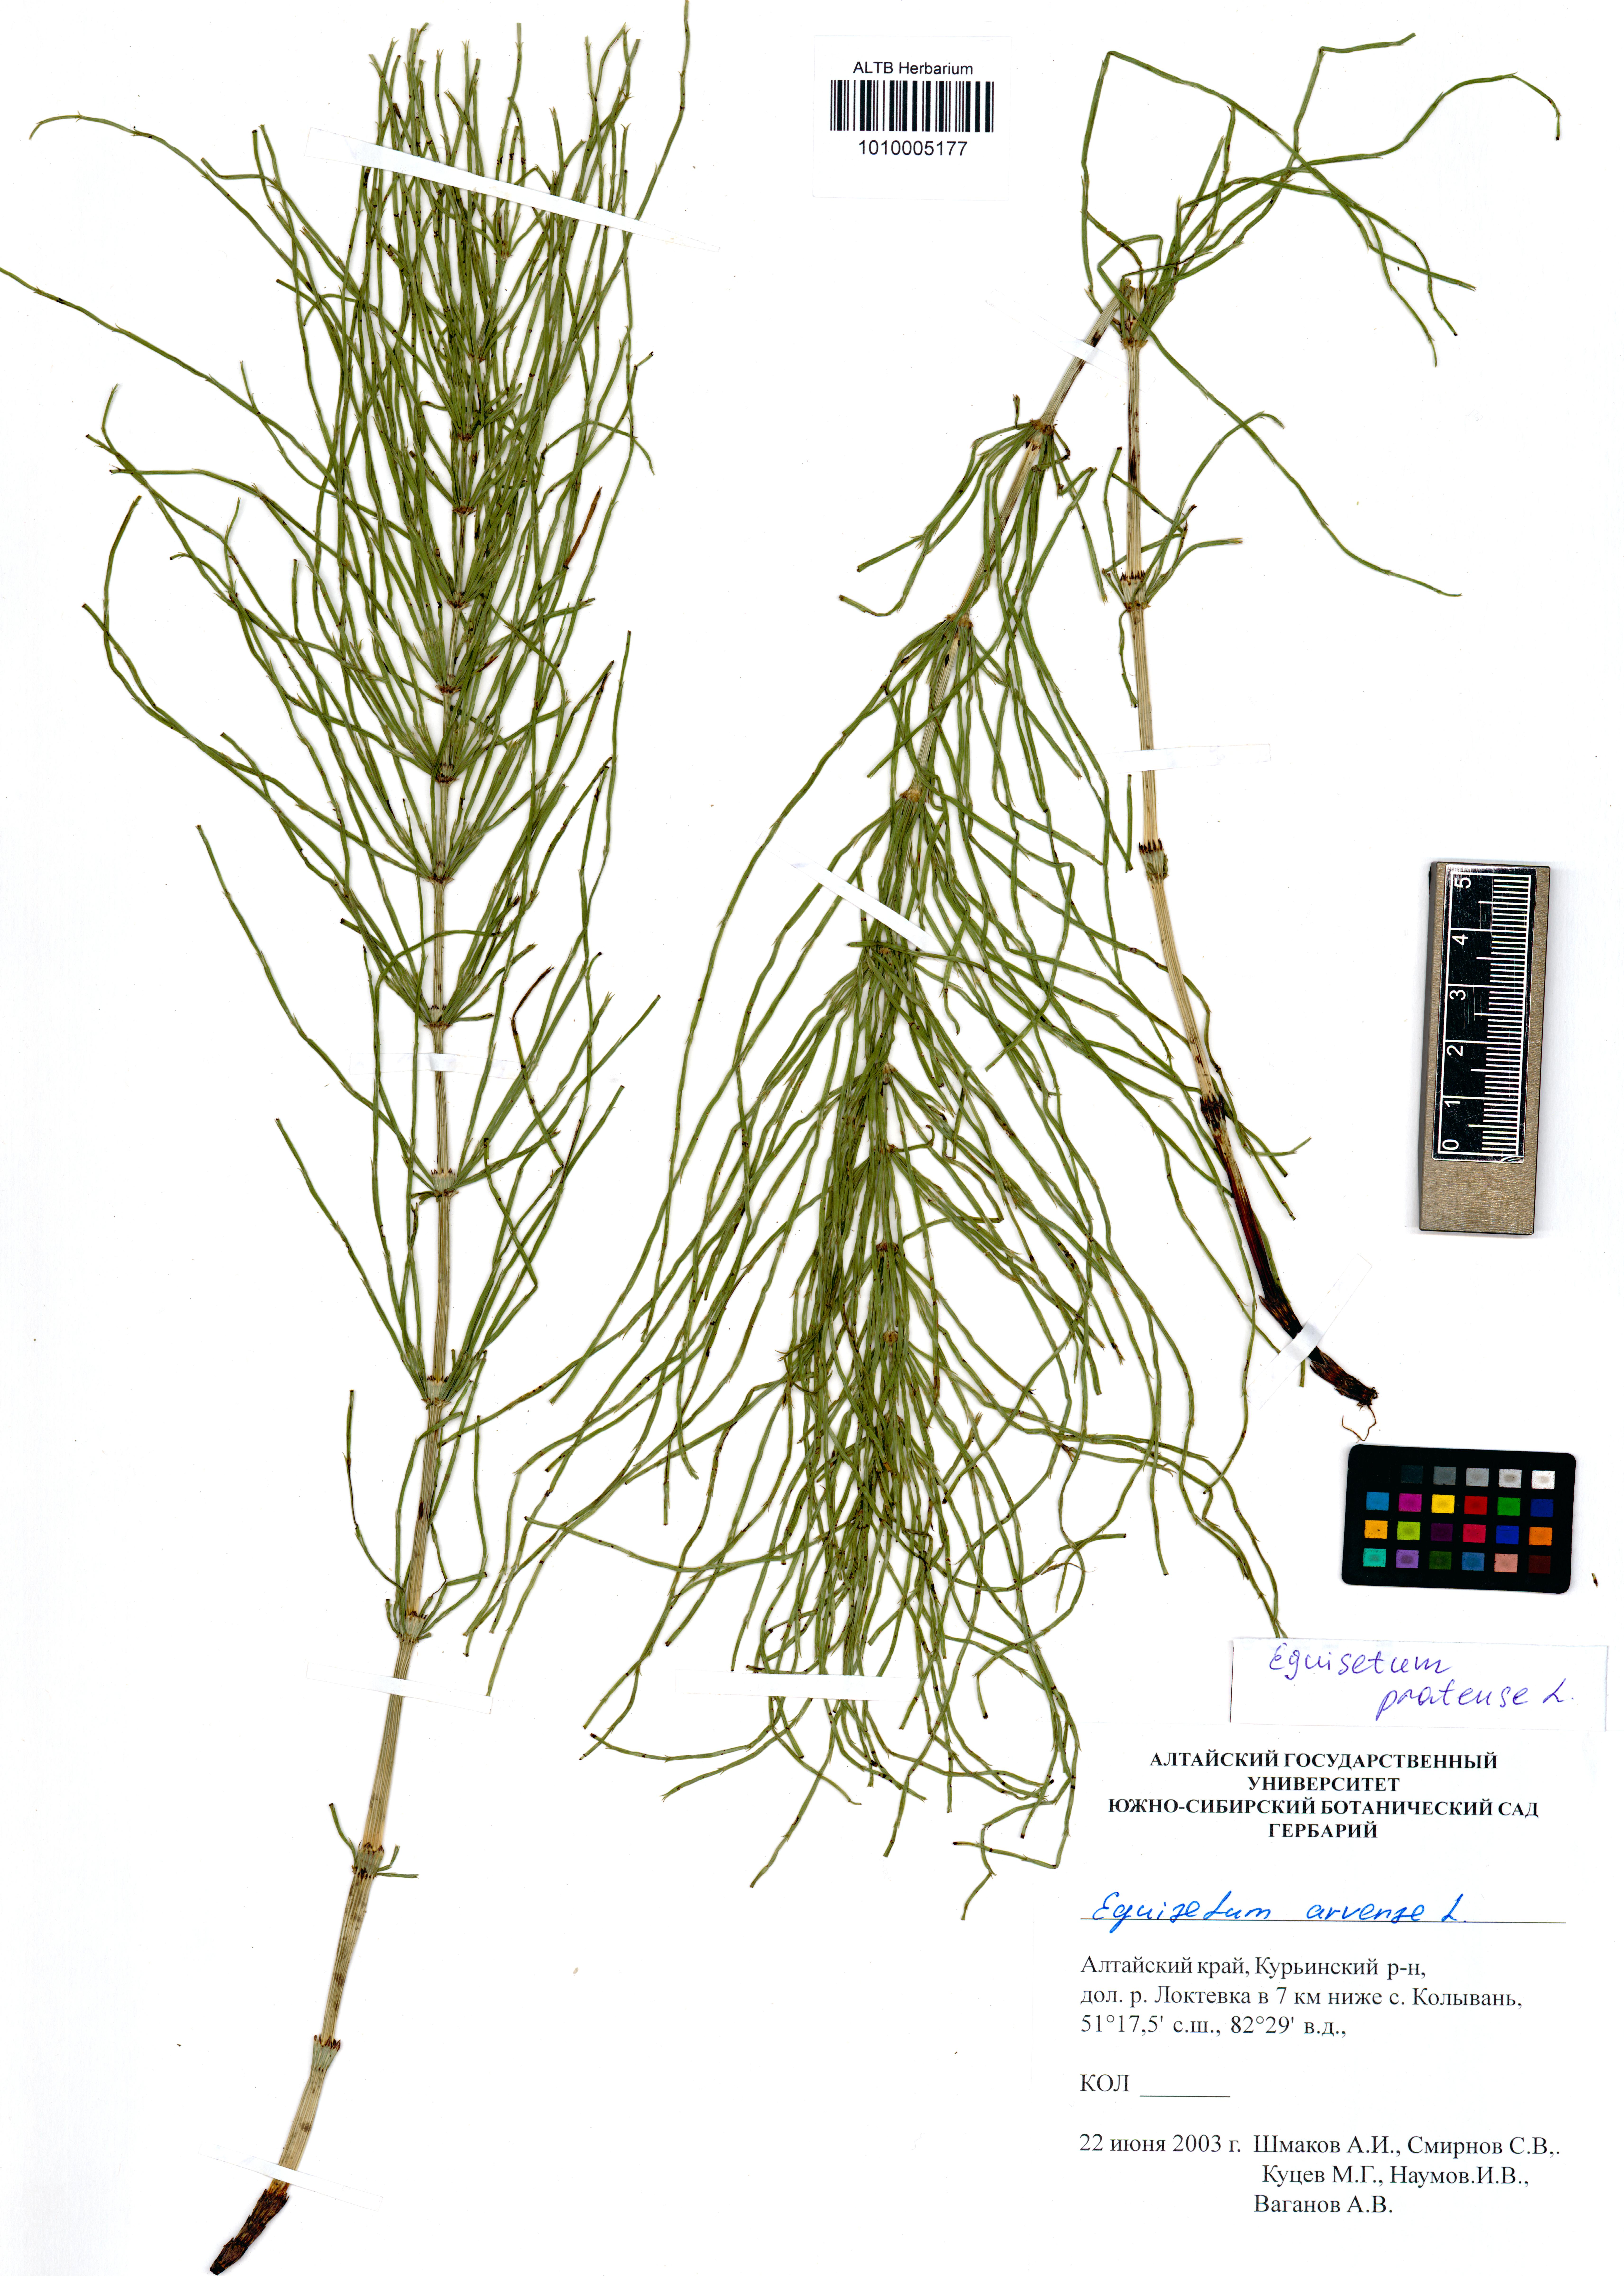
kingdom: Plantae
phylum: Tracheophyta
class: Polypodiopsida
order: Equisetales
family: Equisetaceae
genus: Equisetum
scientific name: Equisetum pratense
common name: Meadow horsetail
